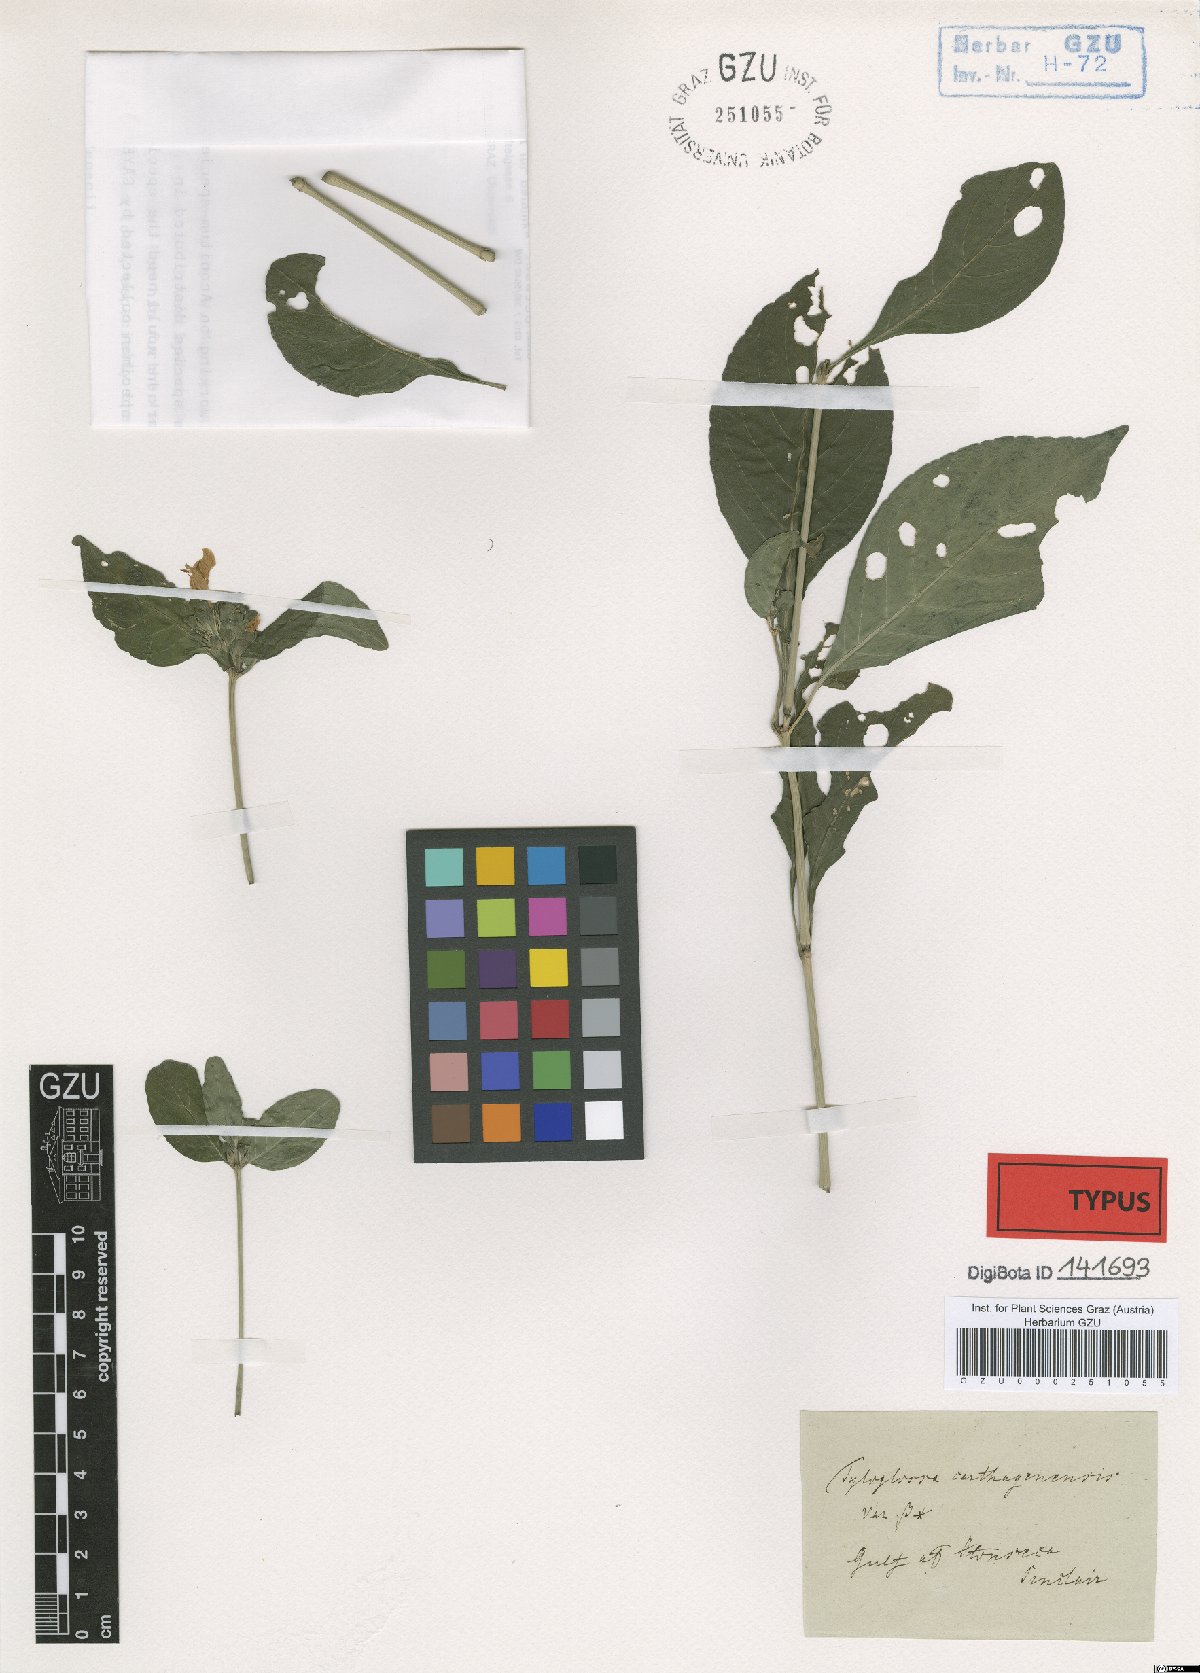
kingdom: Plantae
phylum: Tracheophyta
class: Magnoliopsida
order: Lamiales
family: Acanthaceae
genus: Justicia
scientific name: Justicia carthaginensis
